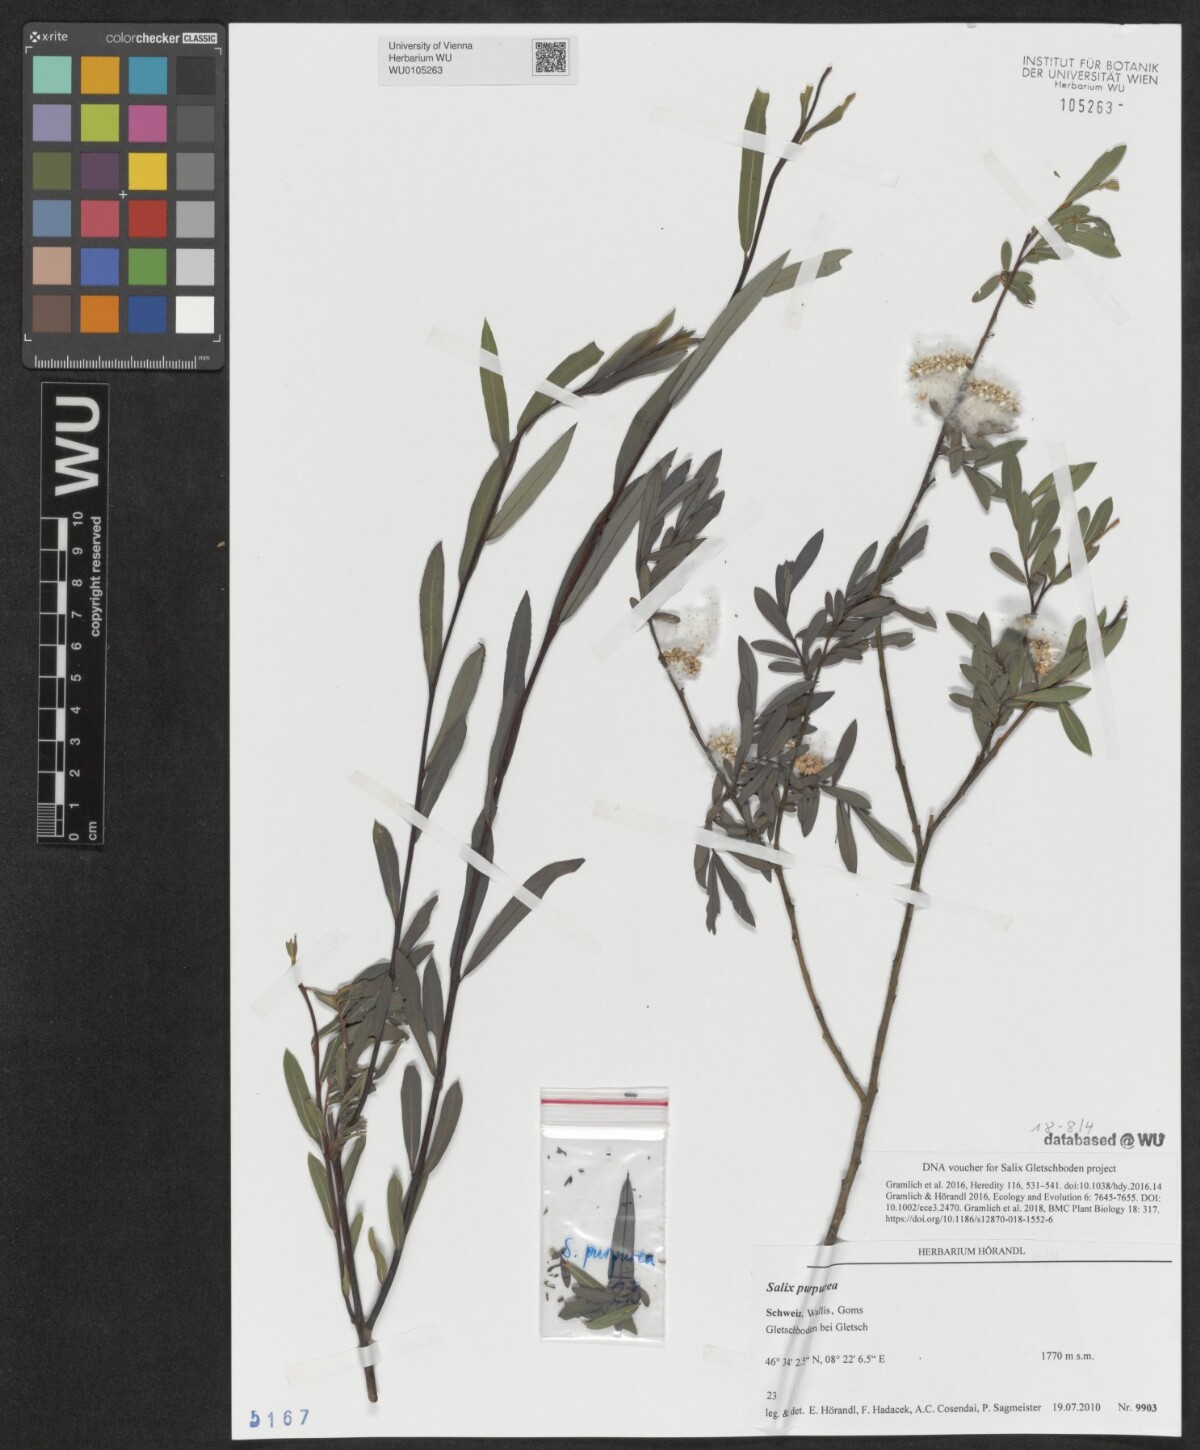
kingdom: Plantae
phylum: Tracheophyta
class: Magnoliopsida
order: Malpighiales
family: Salicaceae
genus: Salix
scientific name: Salix purpurea
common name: Purple willow
